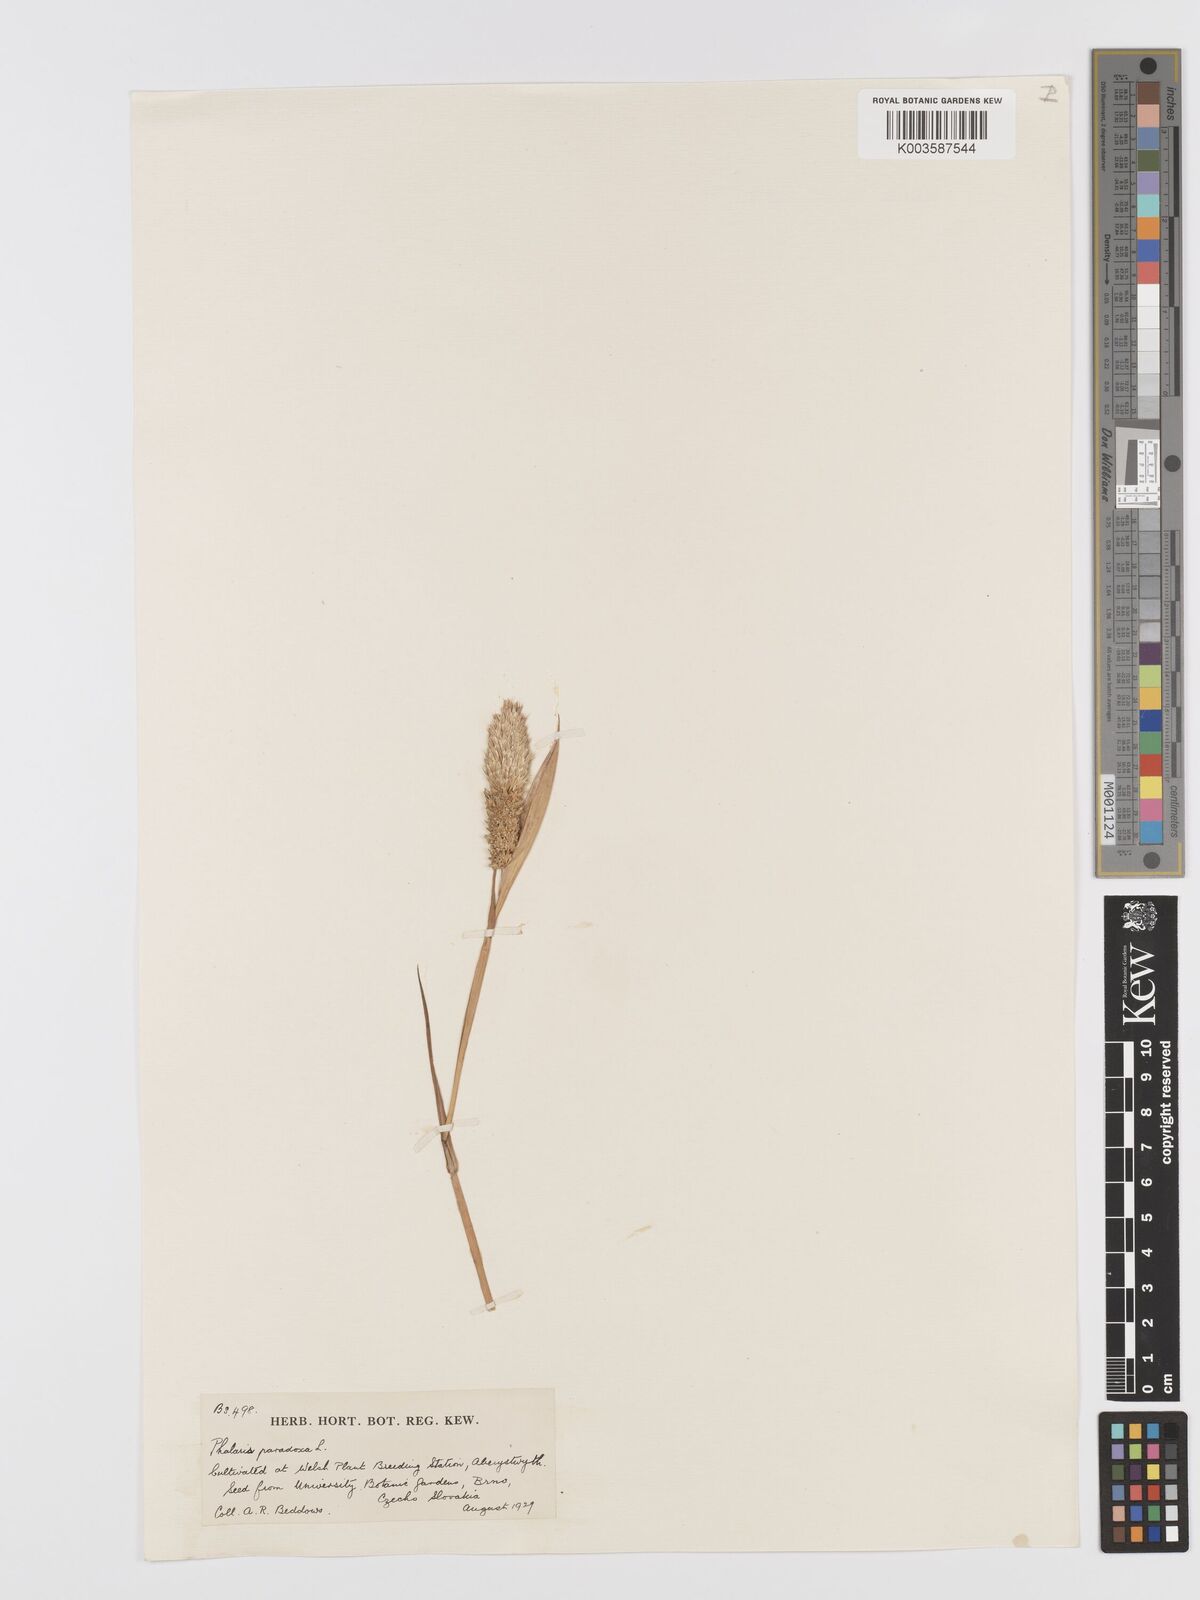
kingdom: Plantae
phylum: Tracheophyta
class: Liliopsida
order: Poales
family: Poaceae
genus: Phalaris
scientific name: Phalaris paradoxa
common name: Awned canary-grass
